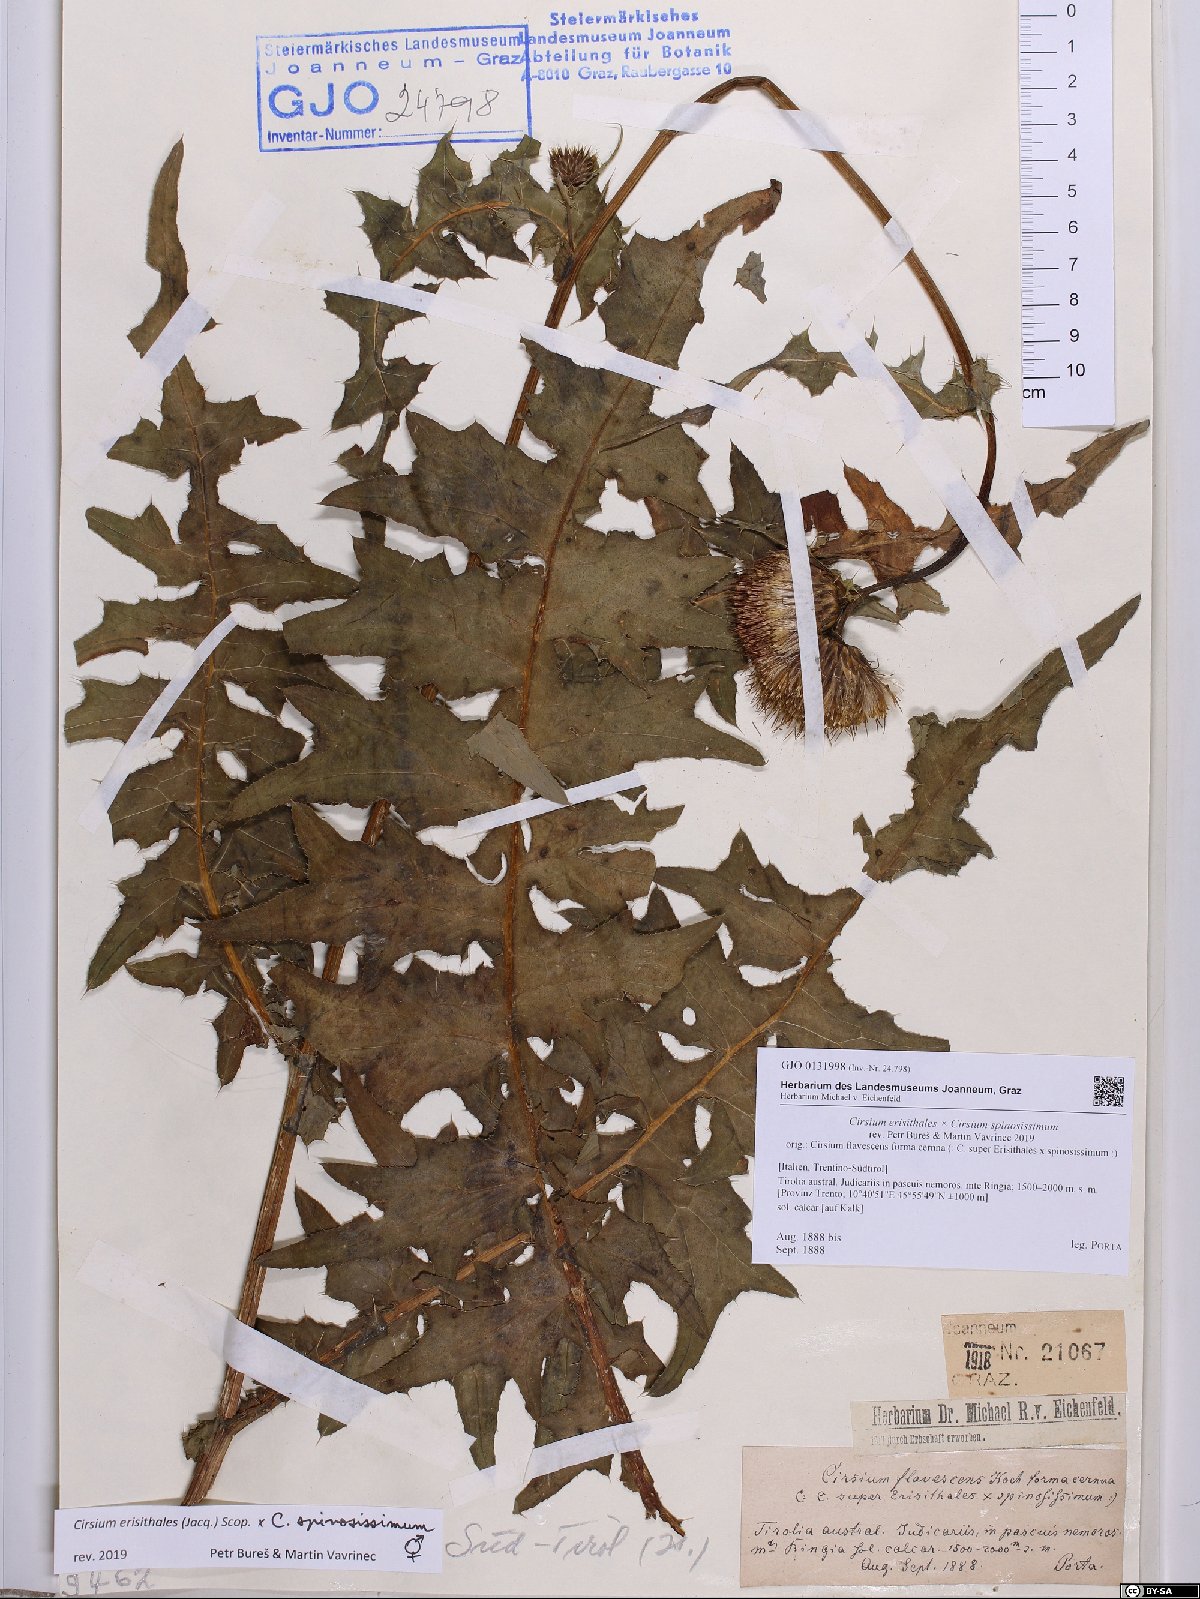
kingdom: Plantae
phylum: Tracheophyta
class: Magnoliopsida
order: Asterales
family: Asteraceae
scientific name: Asteraceae
